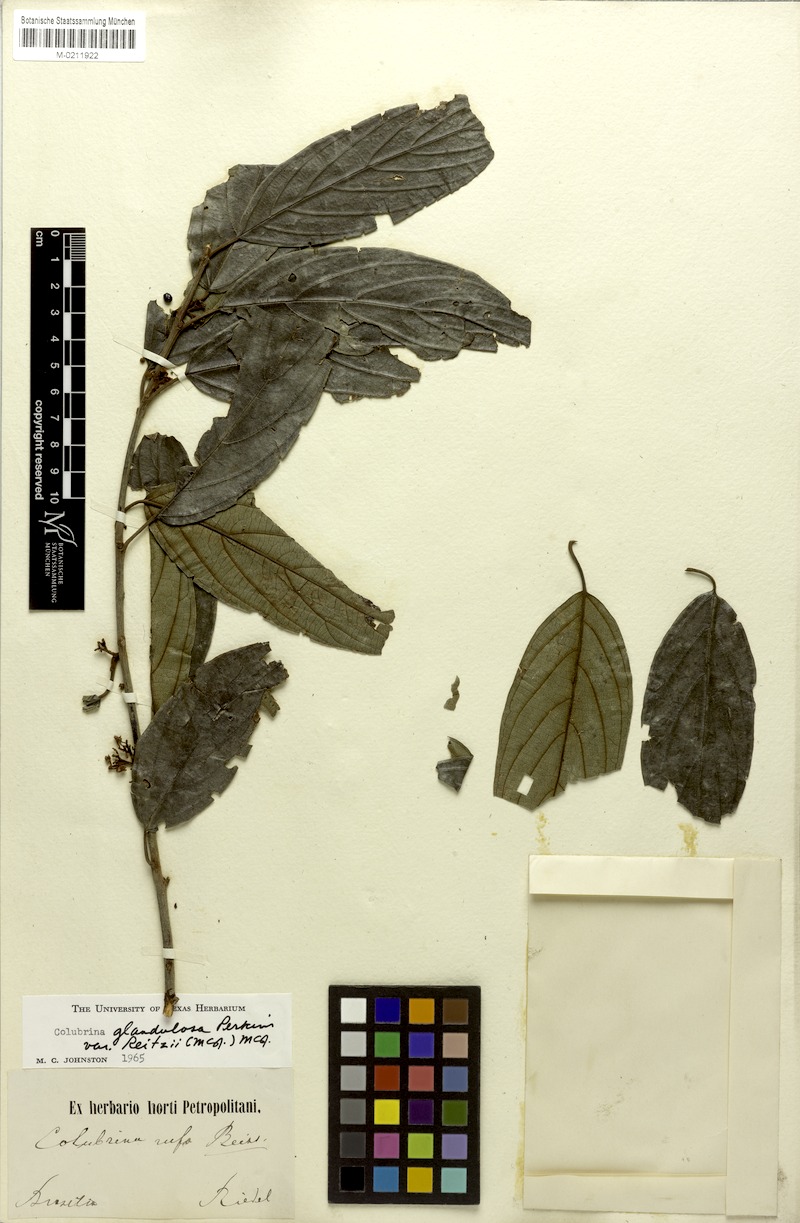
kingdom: Plantae
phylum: Tracheophyta
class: Magnoliopsida
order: Rosales
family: Rhamnaceae
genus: Colubrina
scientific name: Colubrina glandulosa
